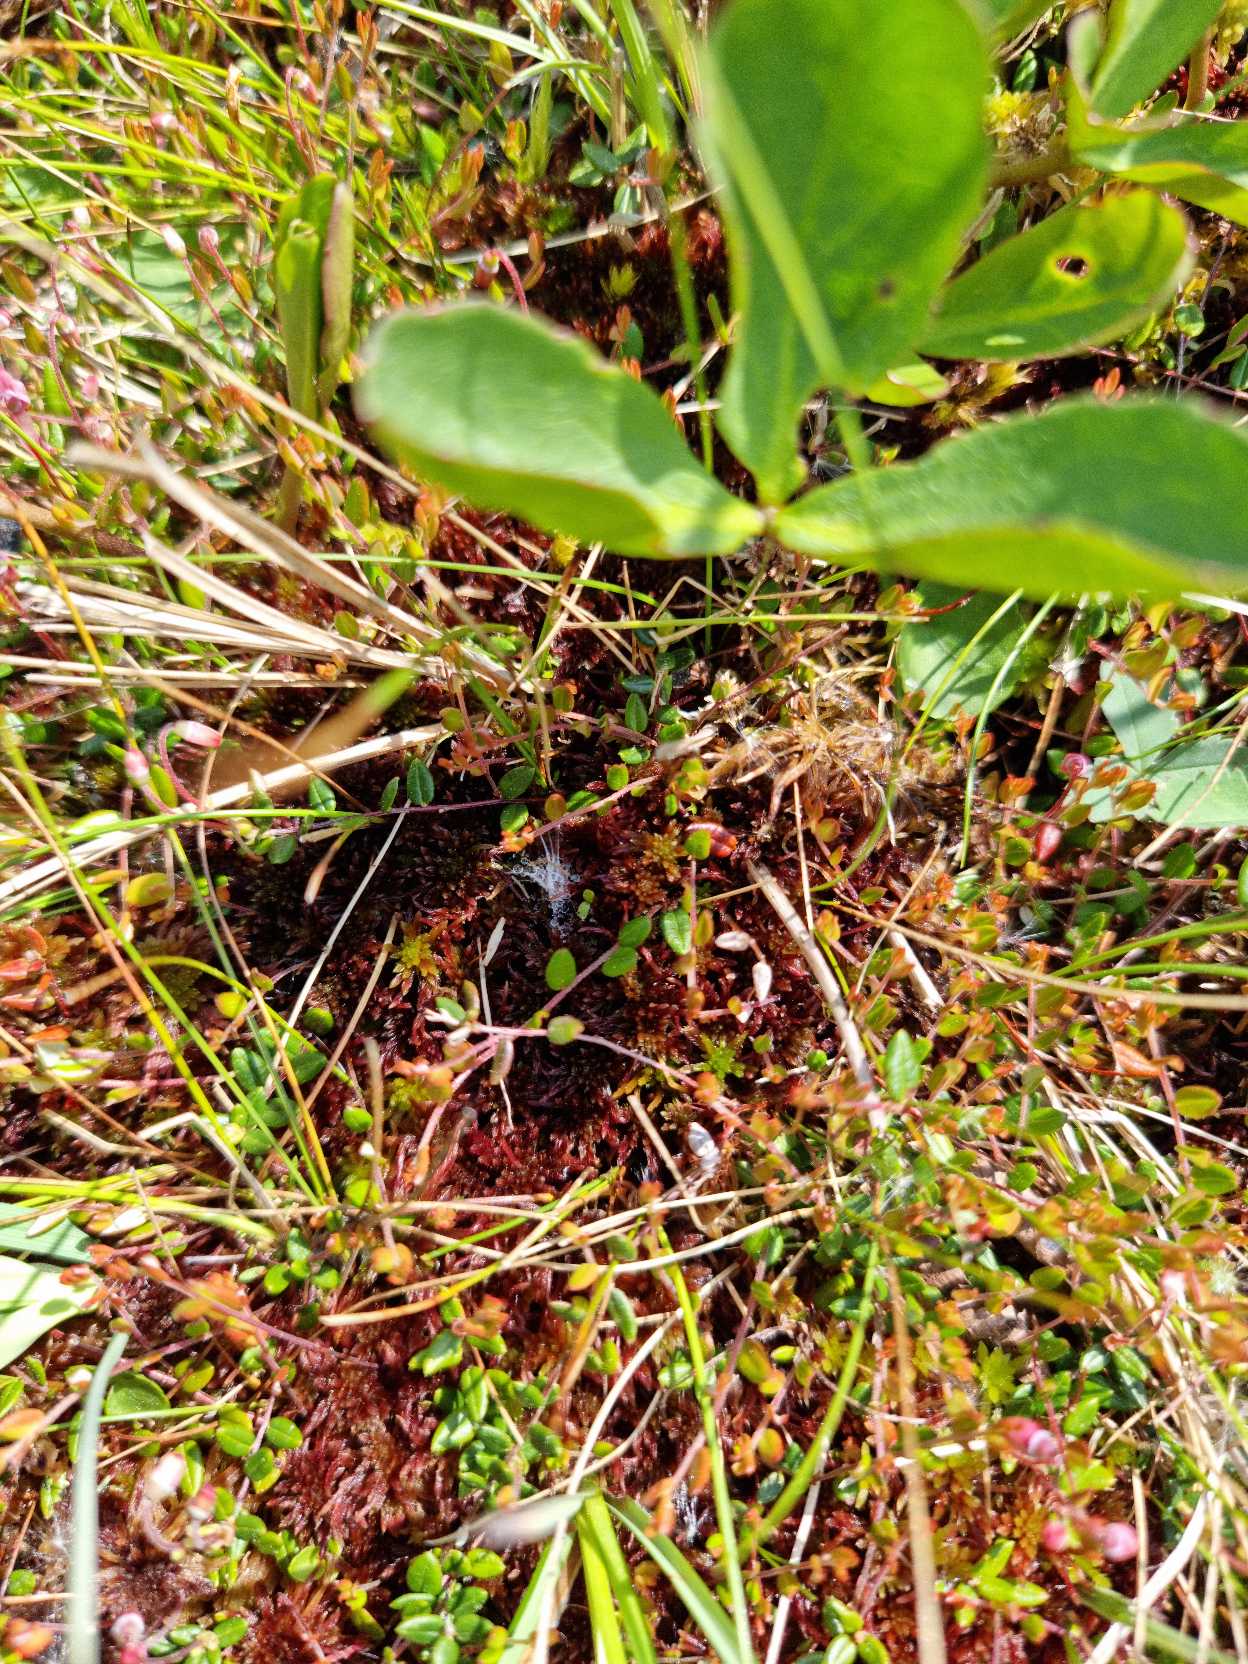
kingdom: Plantae
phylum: Tracheophyta
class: Magnoliopsida
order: Ericales
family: Ericaceae
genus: Vaccinium
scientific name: Vaccinium oxycoccos
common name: Tranebær
